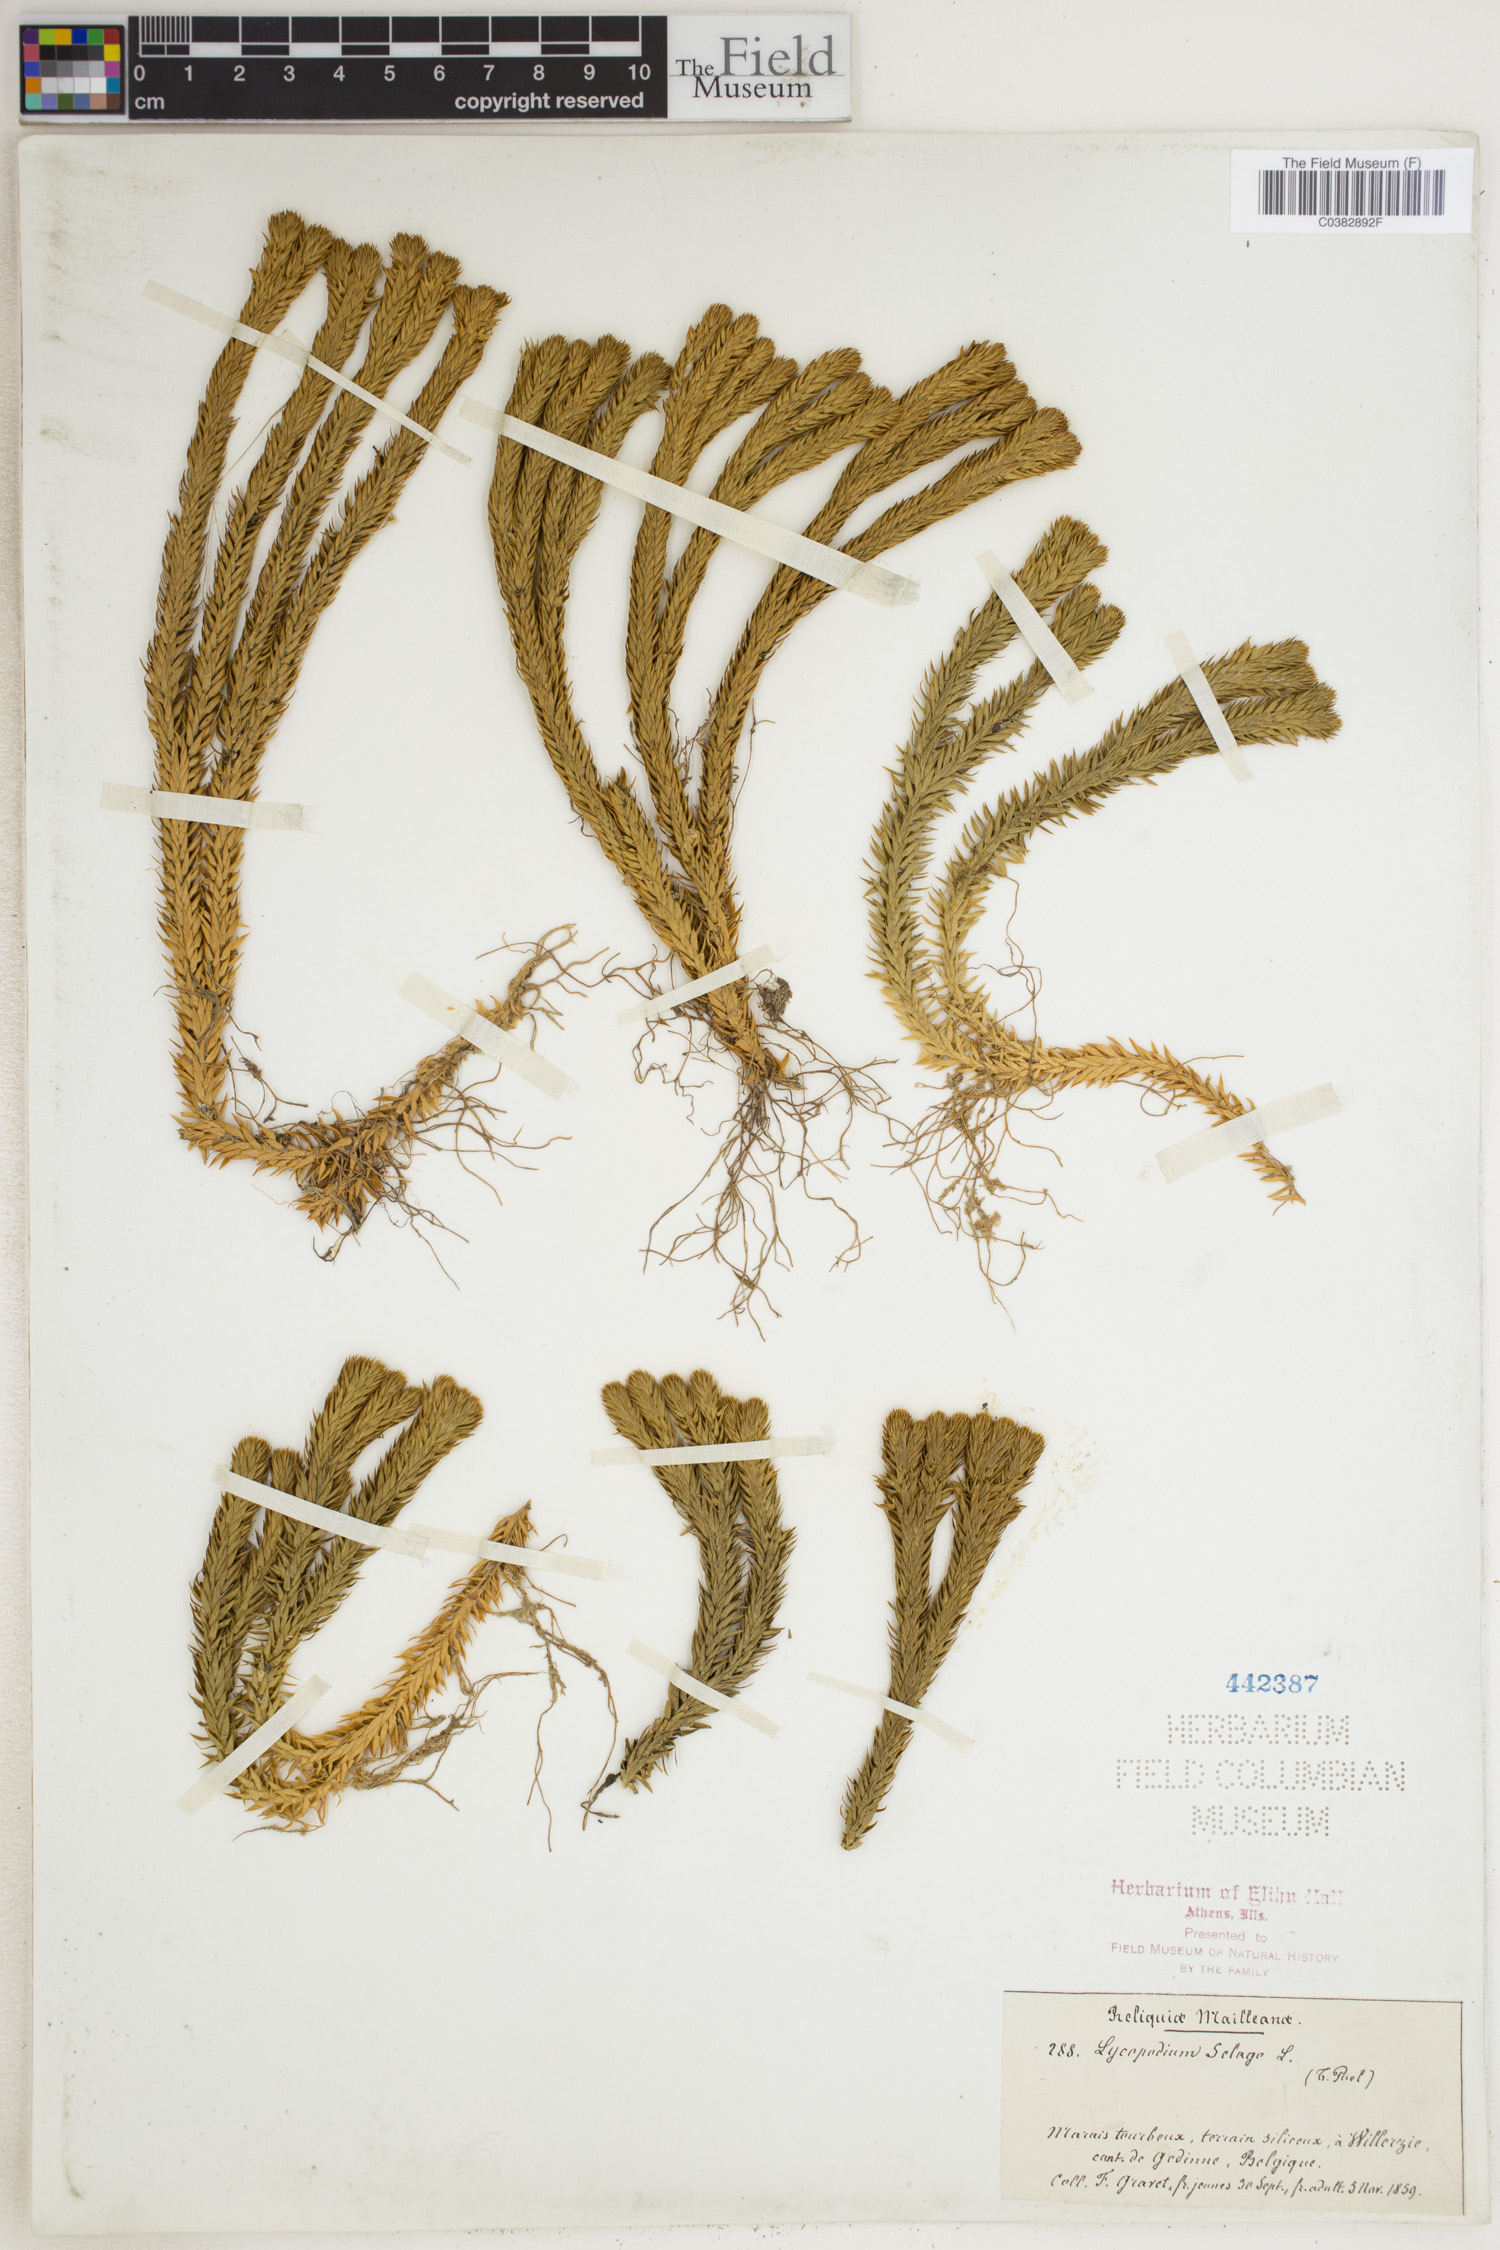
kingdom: Plantae
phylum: Tracheophyta
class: Lycopodiopsida
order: Lycopodiales
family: Lycopodiaceae
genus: Huperzia
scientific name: Huperzia selago
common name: Northern firmoss
